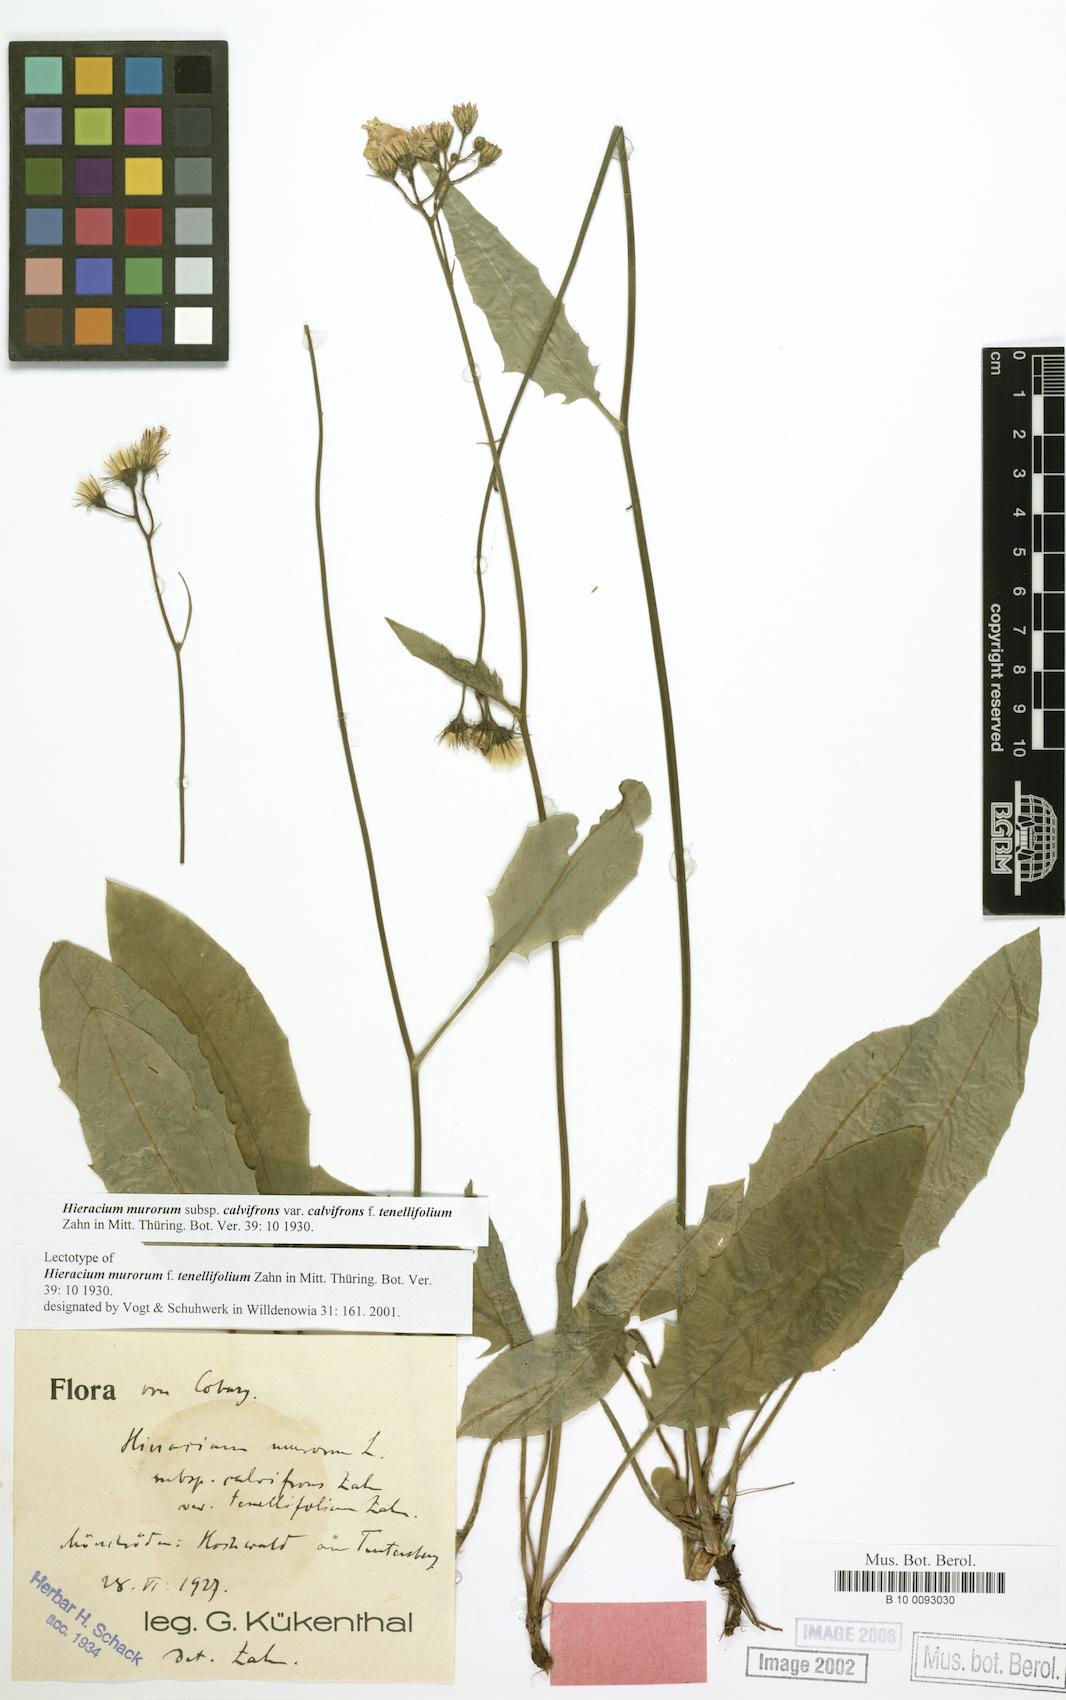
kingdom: Plantae
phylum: Tracheophyta
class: Magnoliopsida
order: Asterales
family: Asteraceae
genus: Hieracium
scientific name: Hieracium murorum
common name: Wall hawkweed
